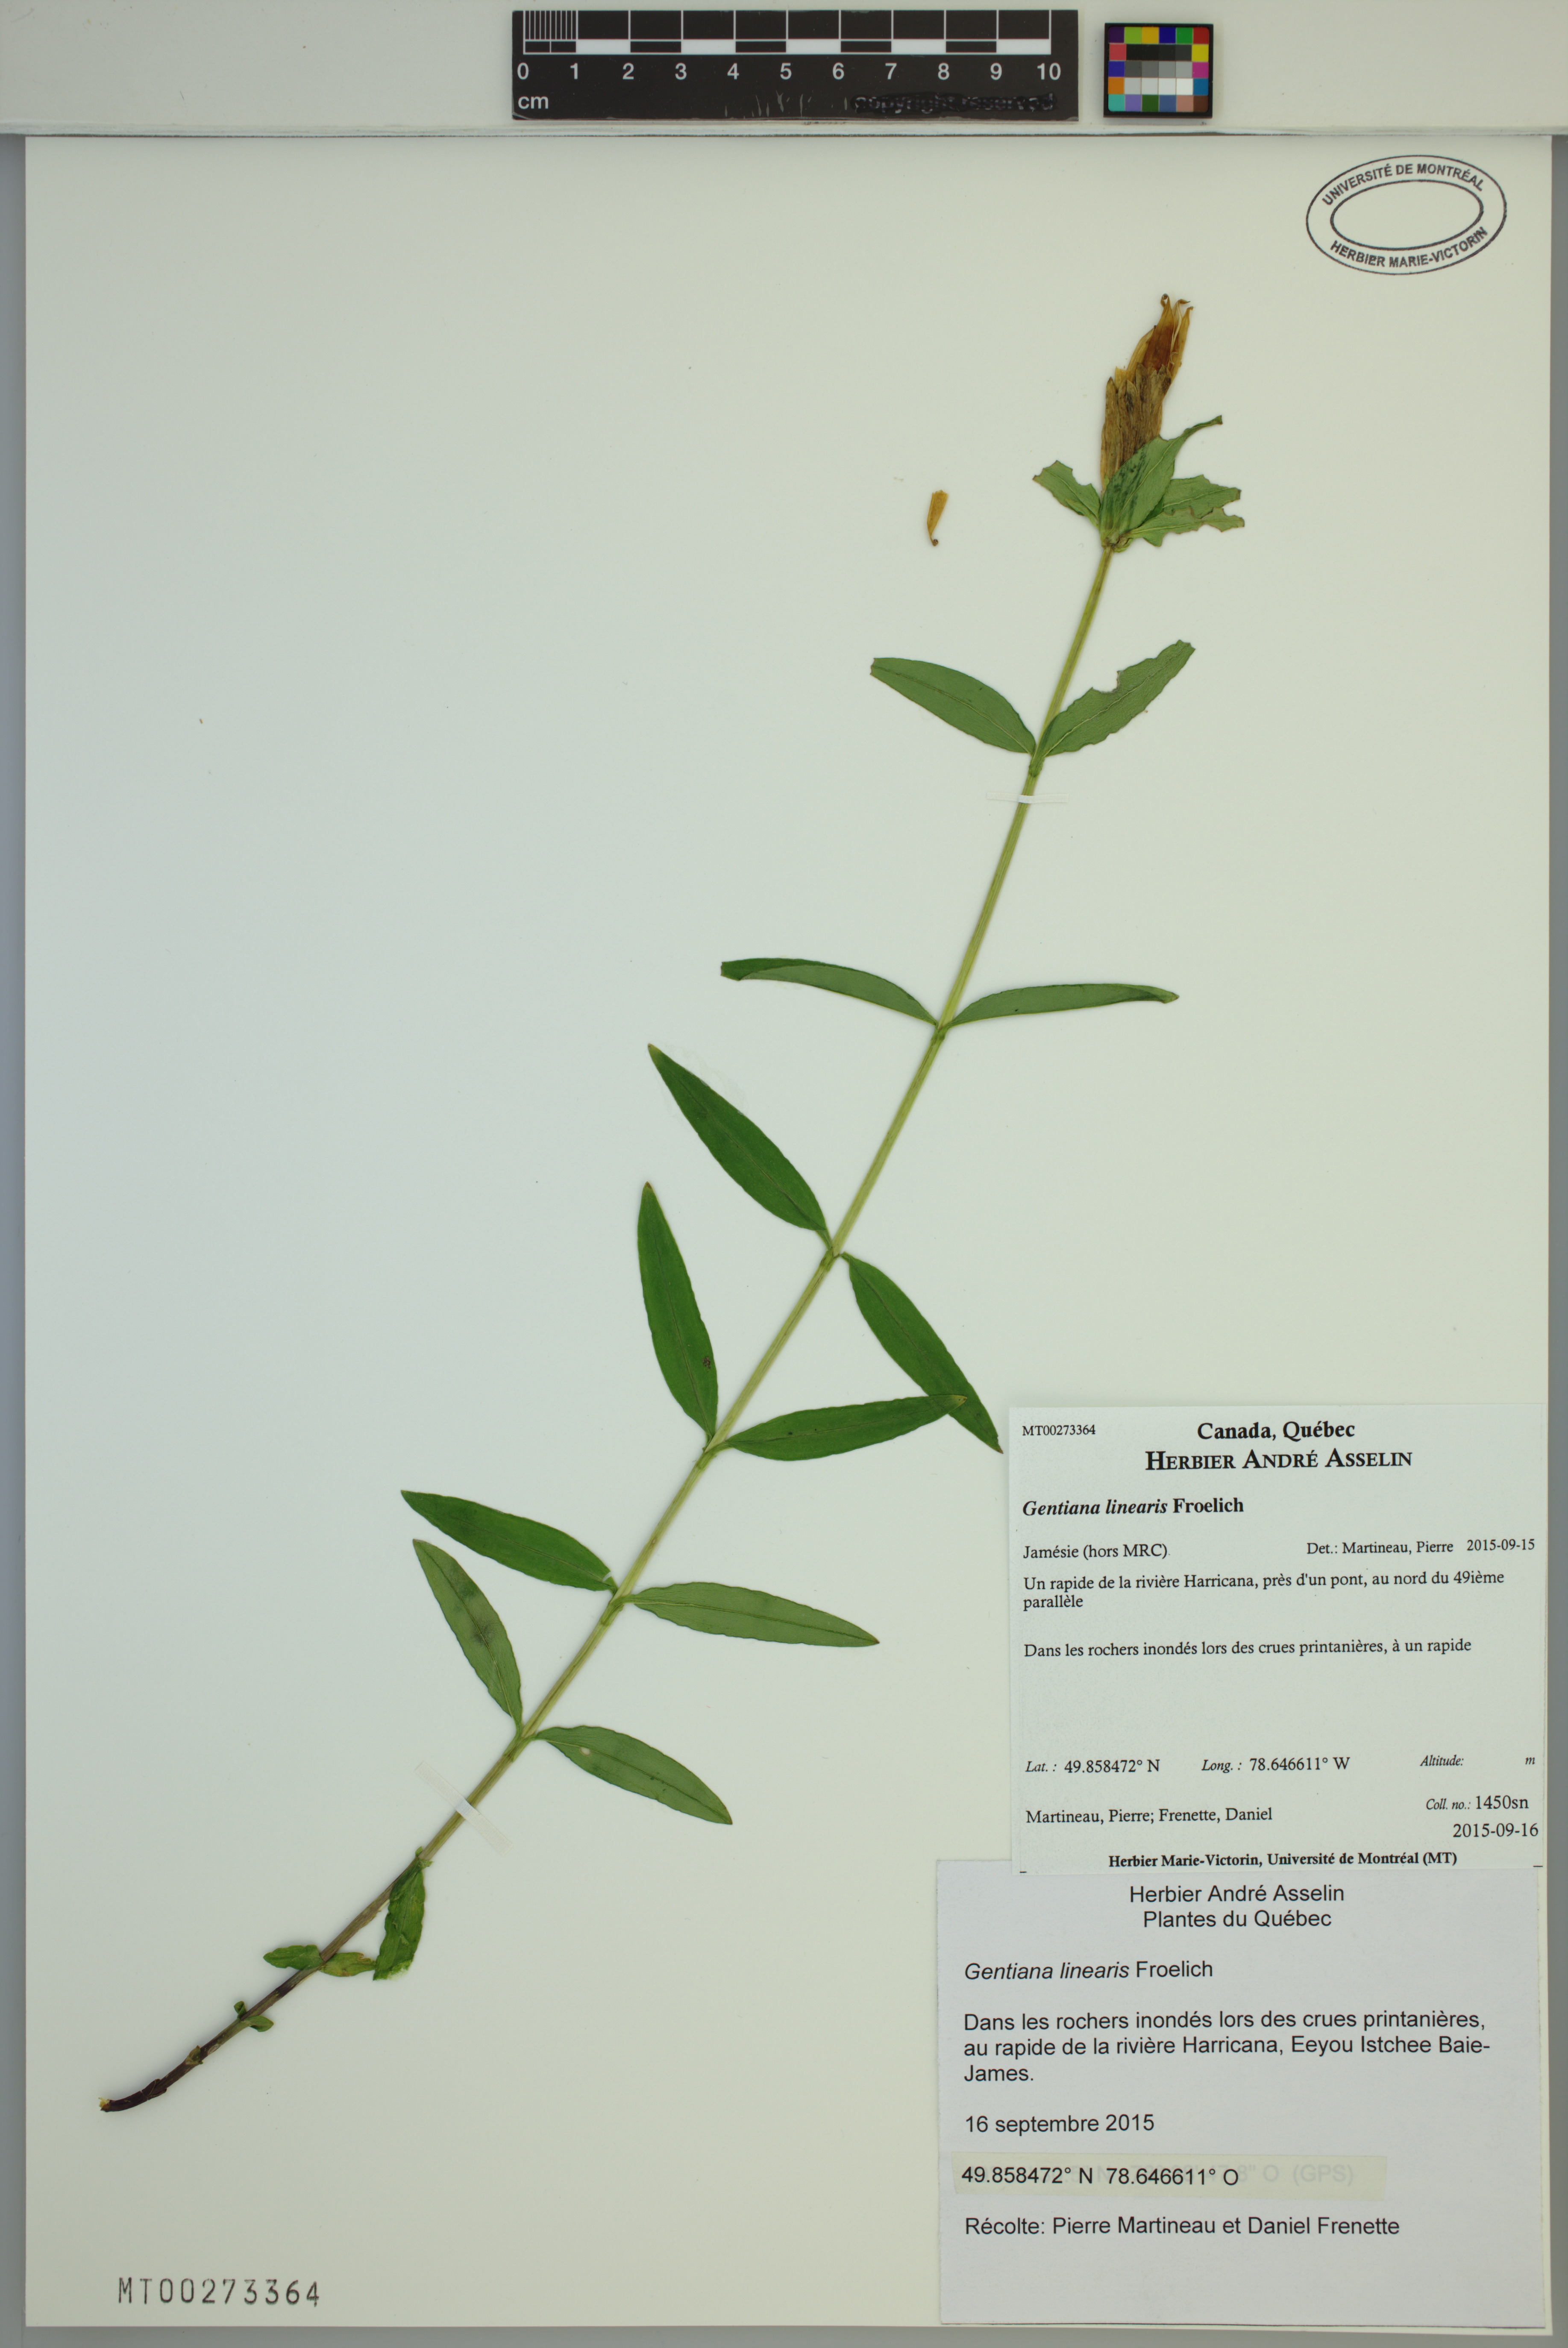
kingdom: Plantae
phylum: Tracheophyta
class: Magnoliopsida
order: Gentianales
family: Gentianaceae
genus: Gentiana
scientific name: Gentiana linearis
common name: Bastard gentian
